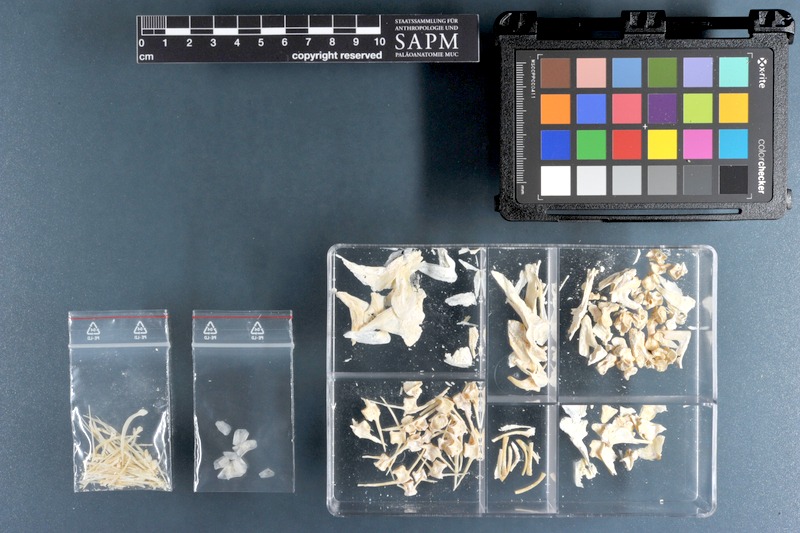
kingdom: Animalia
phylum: Chordata
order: Perciformes
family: Sparidae
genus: Pagellus
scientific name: Pagellus bellottii
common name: Red pandora
